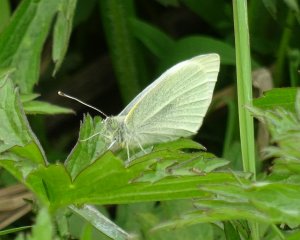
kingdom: Animalia
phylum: Arthropoda
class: Insecta
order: Lepidoptera
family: Pieridae
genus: Pieris
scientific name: Pieris rapae
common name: Cabbage White
